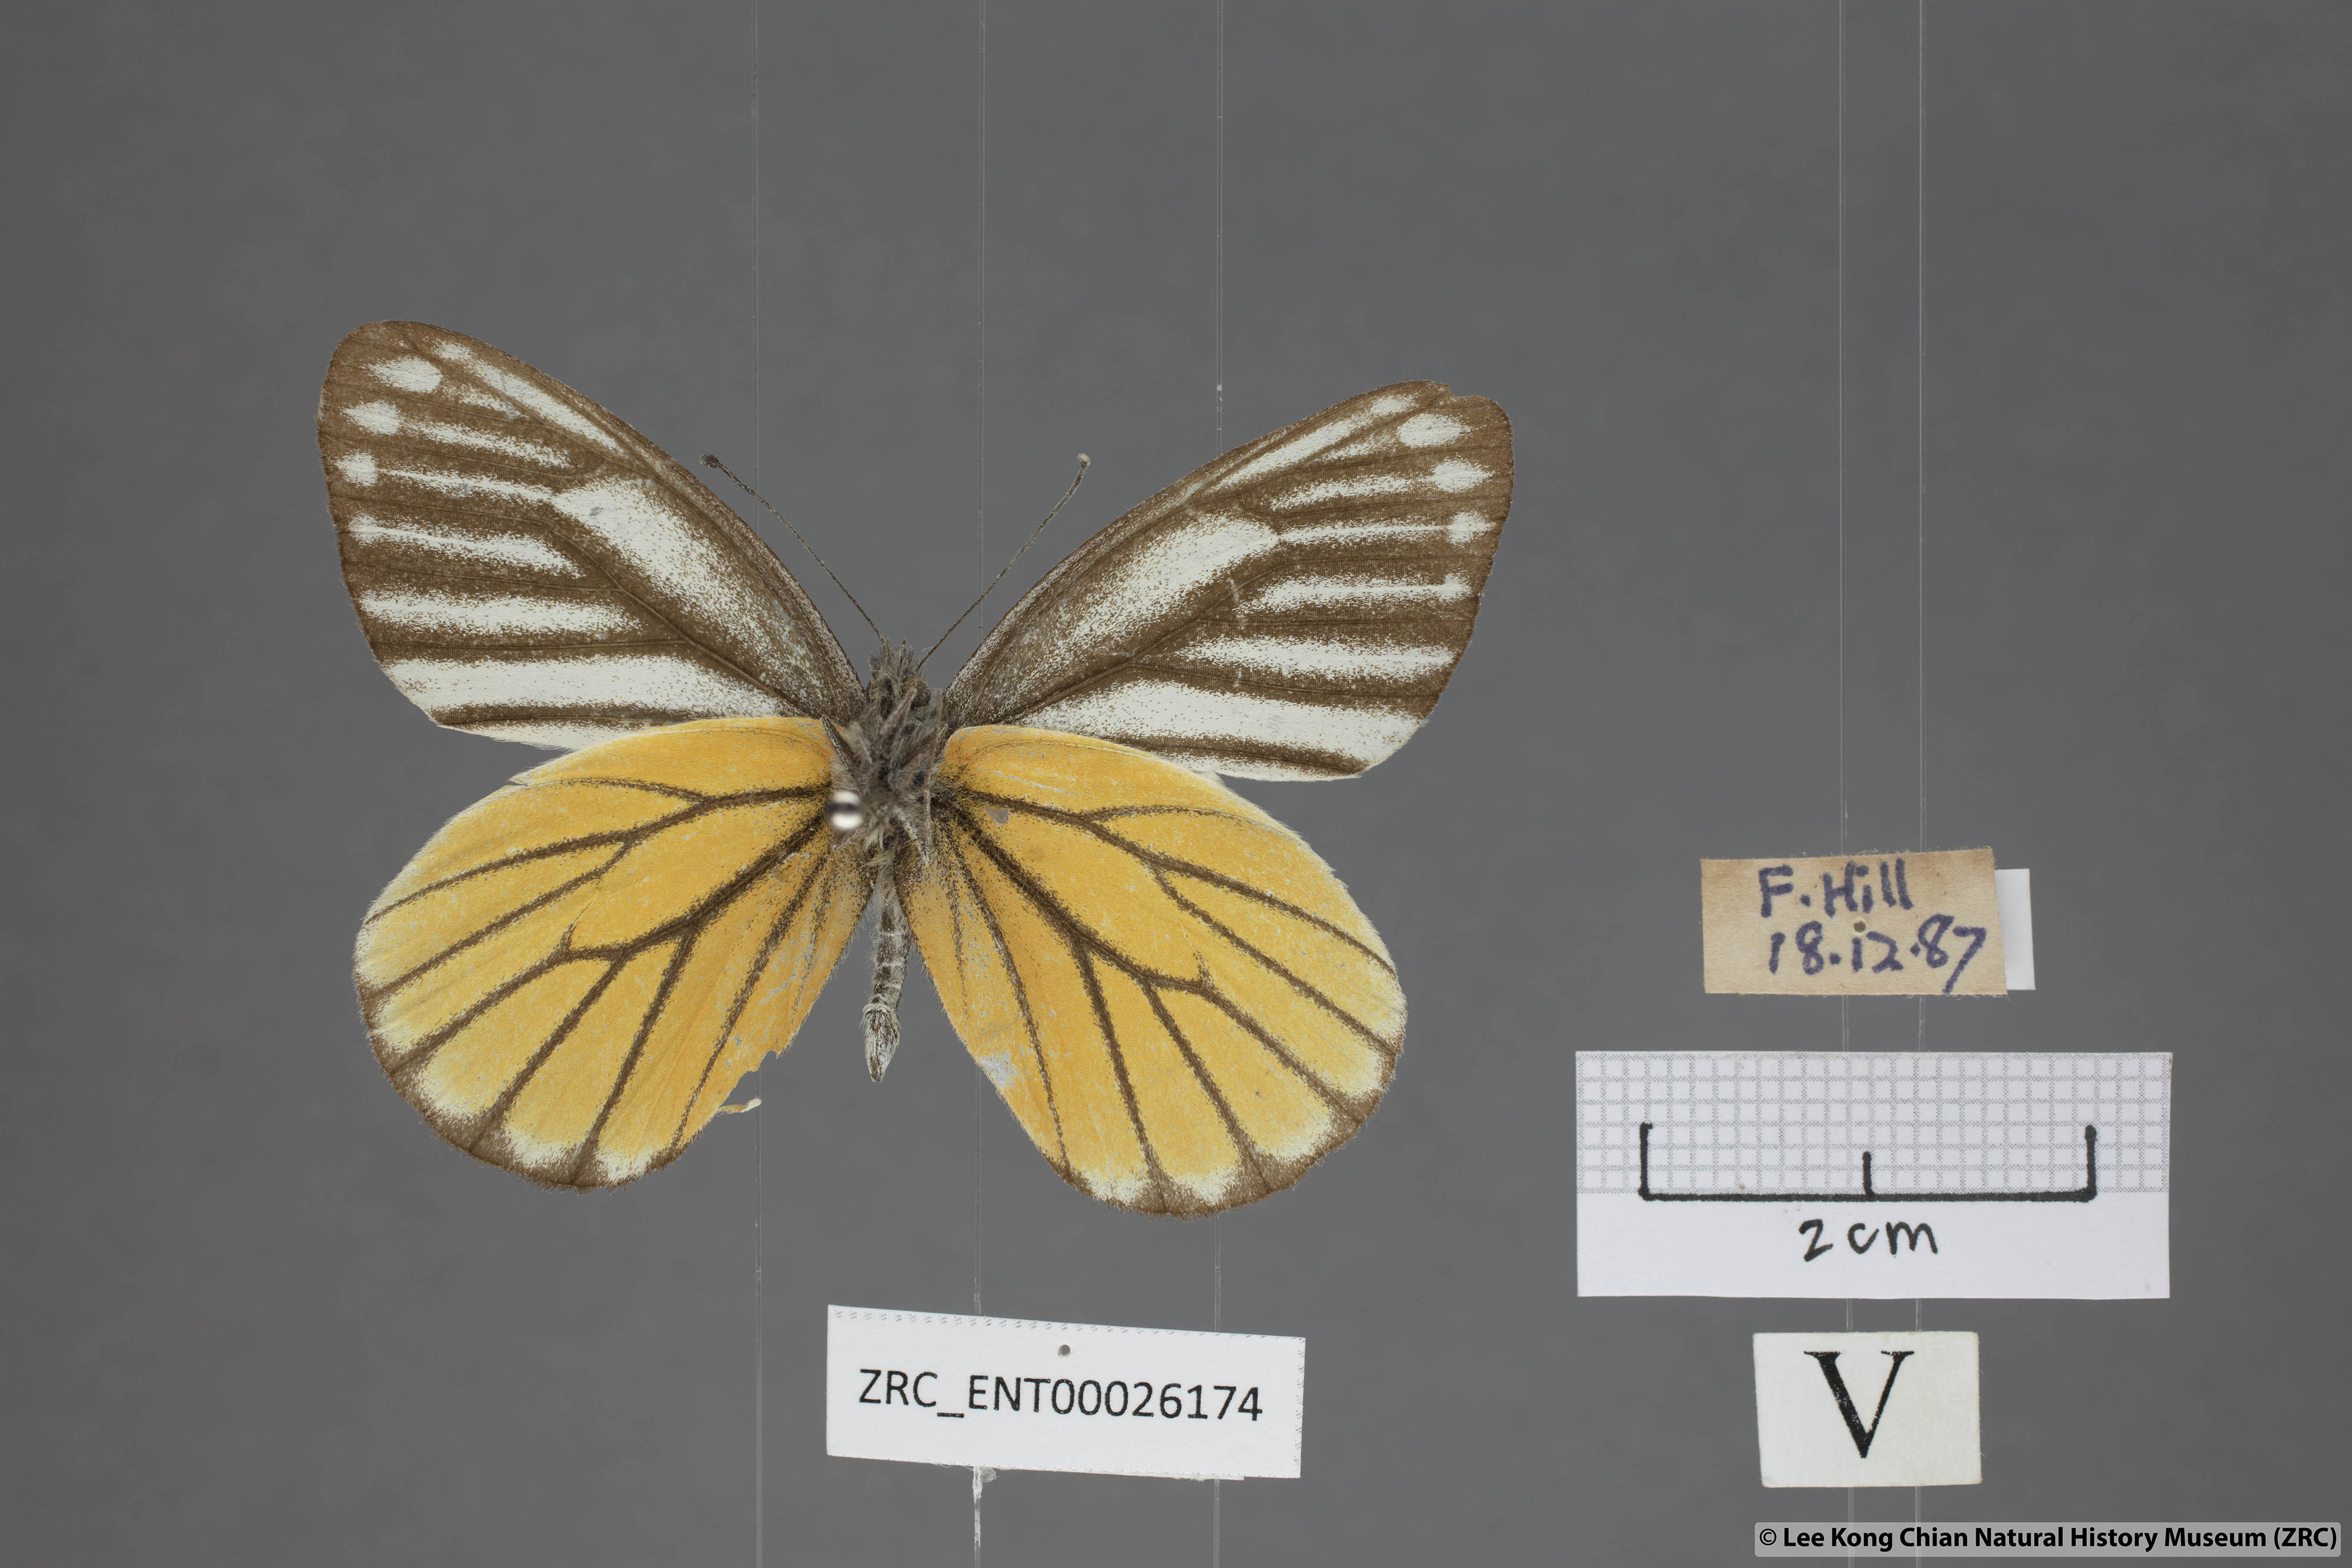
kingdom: Animalia
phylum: Arthropoda
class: Insecta
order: Lepidoptera
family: Pieridae
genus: Delias
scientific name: Delias baracasa
